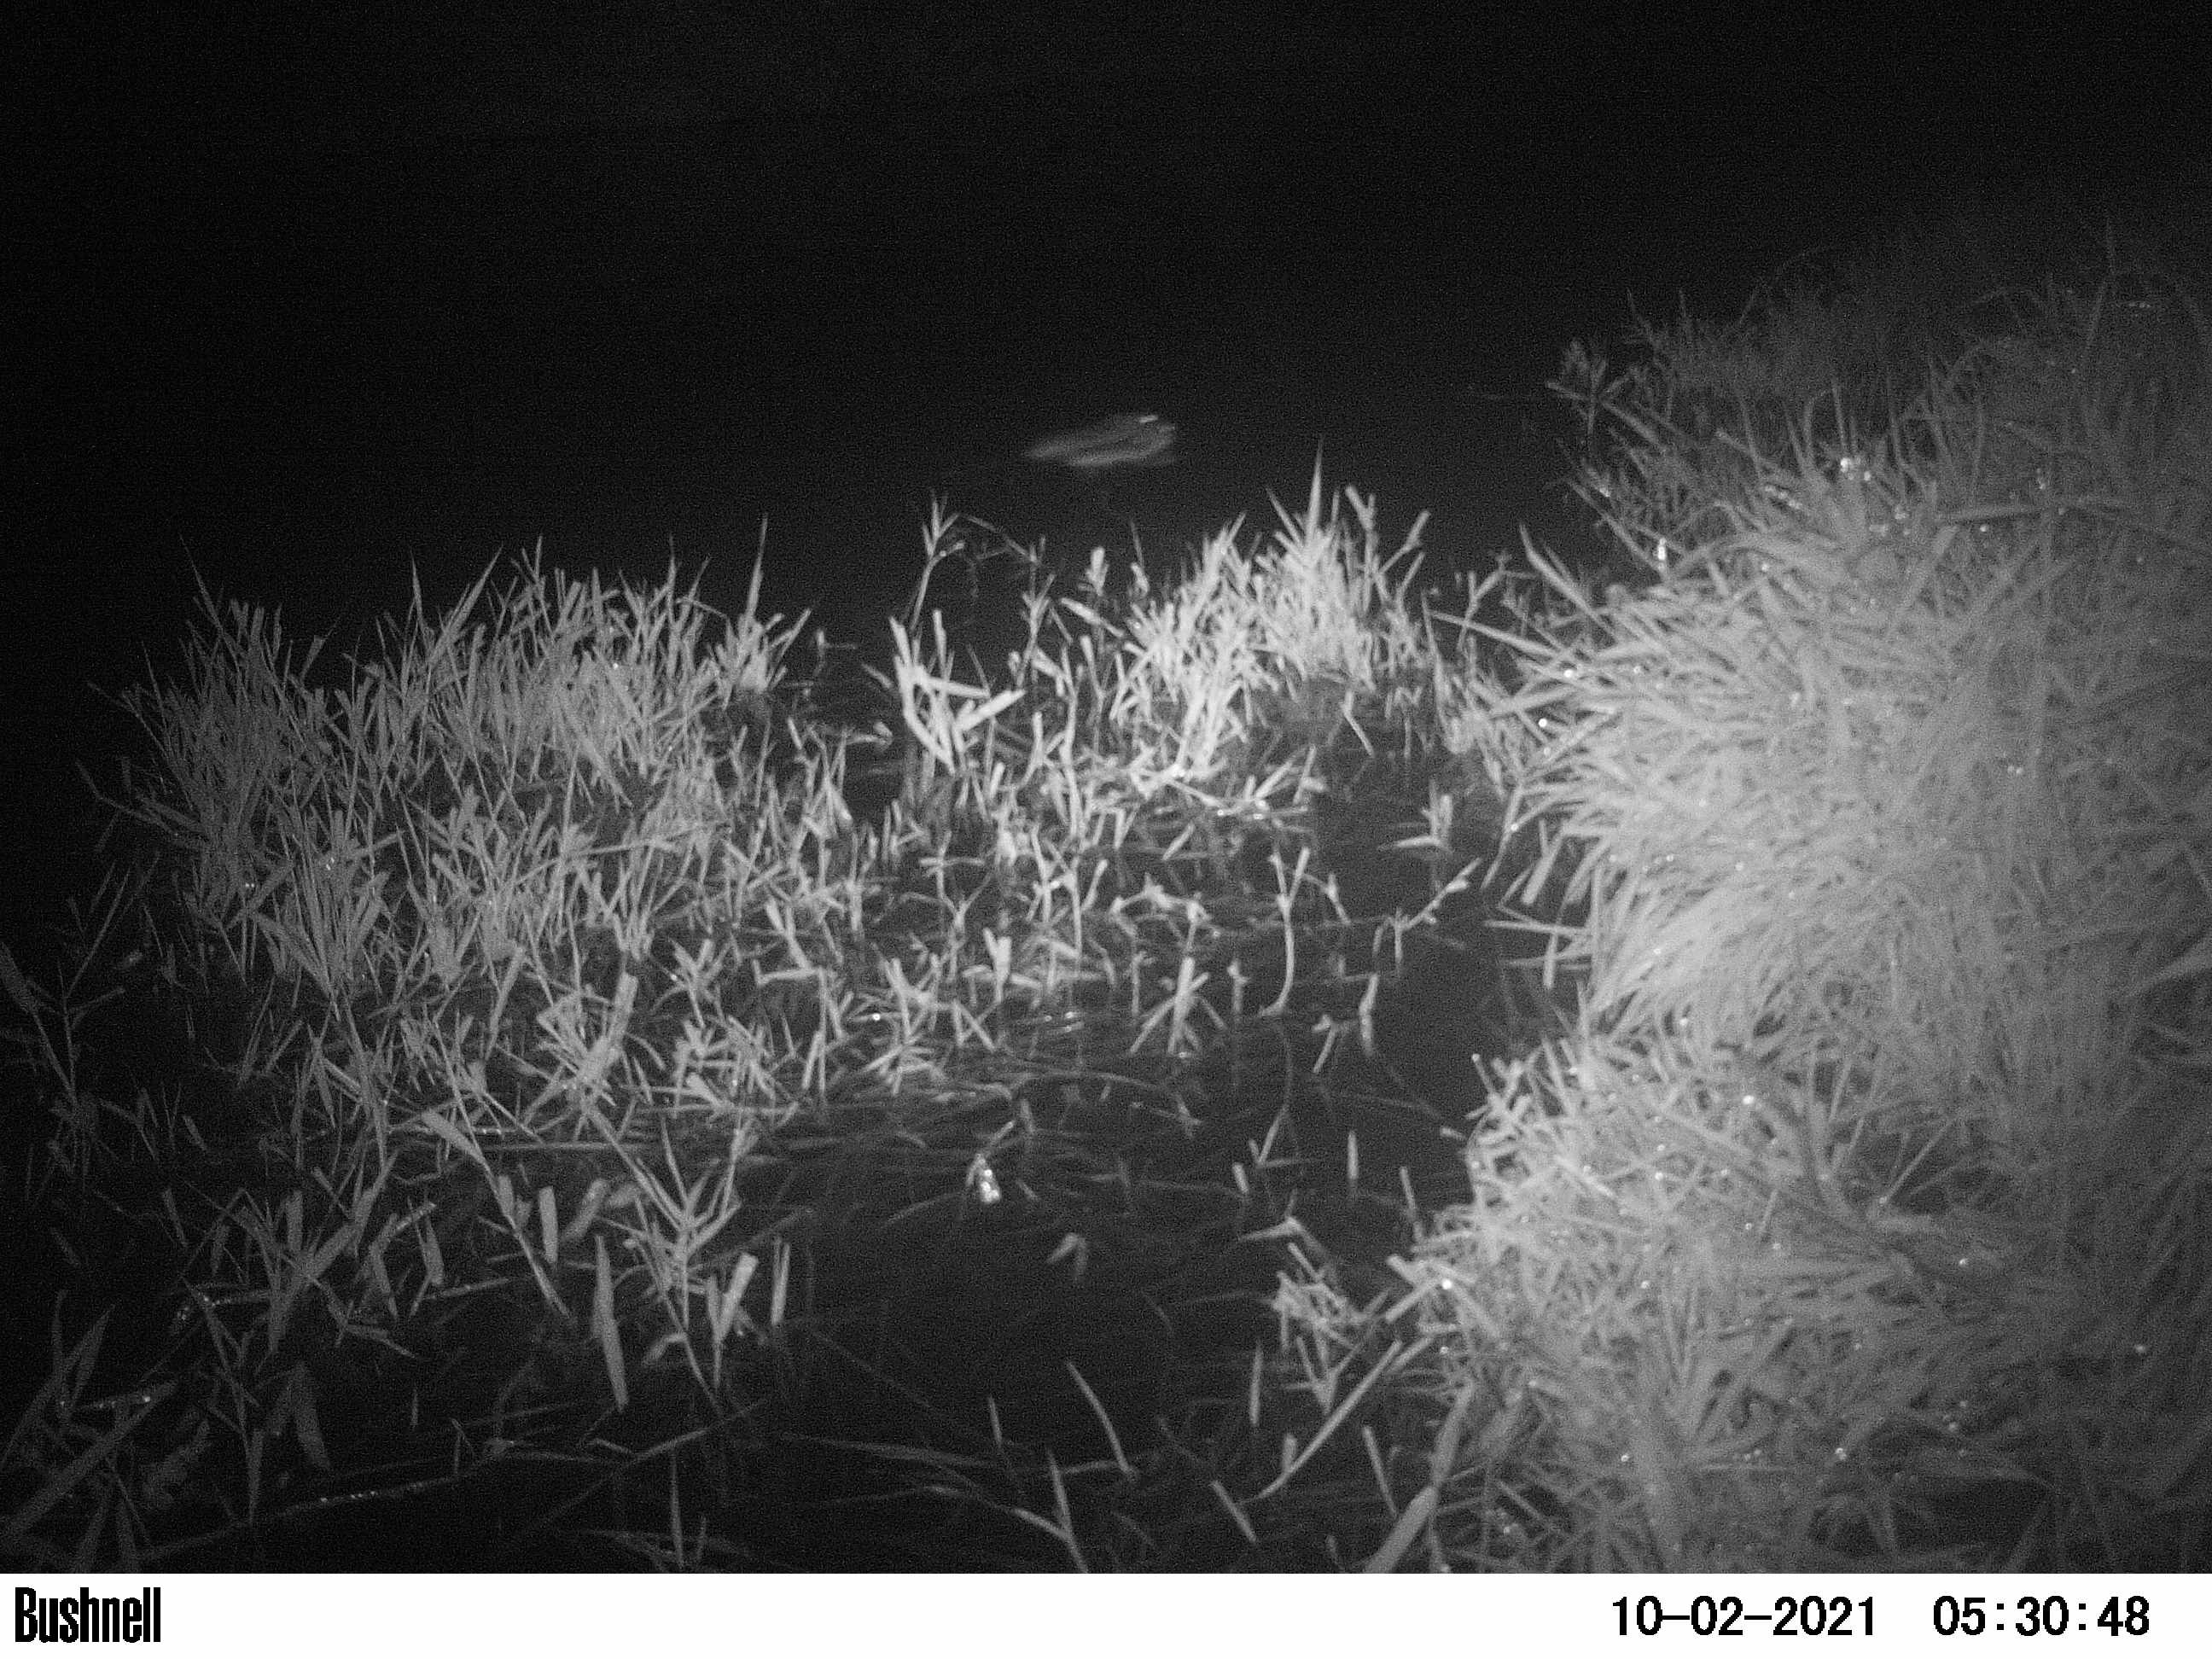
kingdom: Animalia
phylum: Chordata
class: Mammalia
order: Rodentia
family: Cricetidae
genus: Ondatra
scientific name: Ondatra zibethicus
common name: Muskrat
